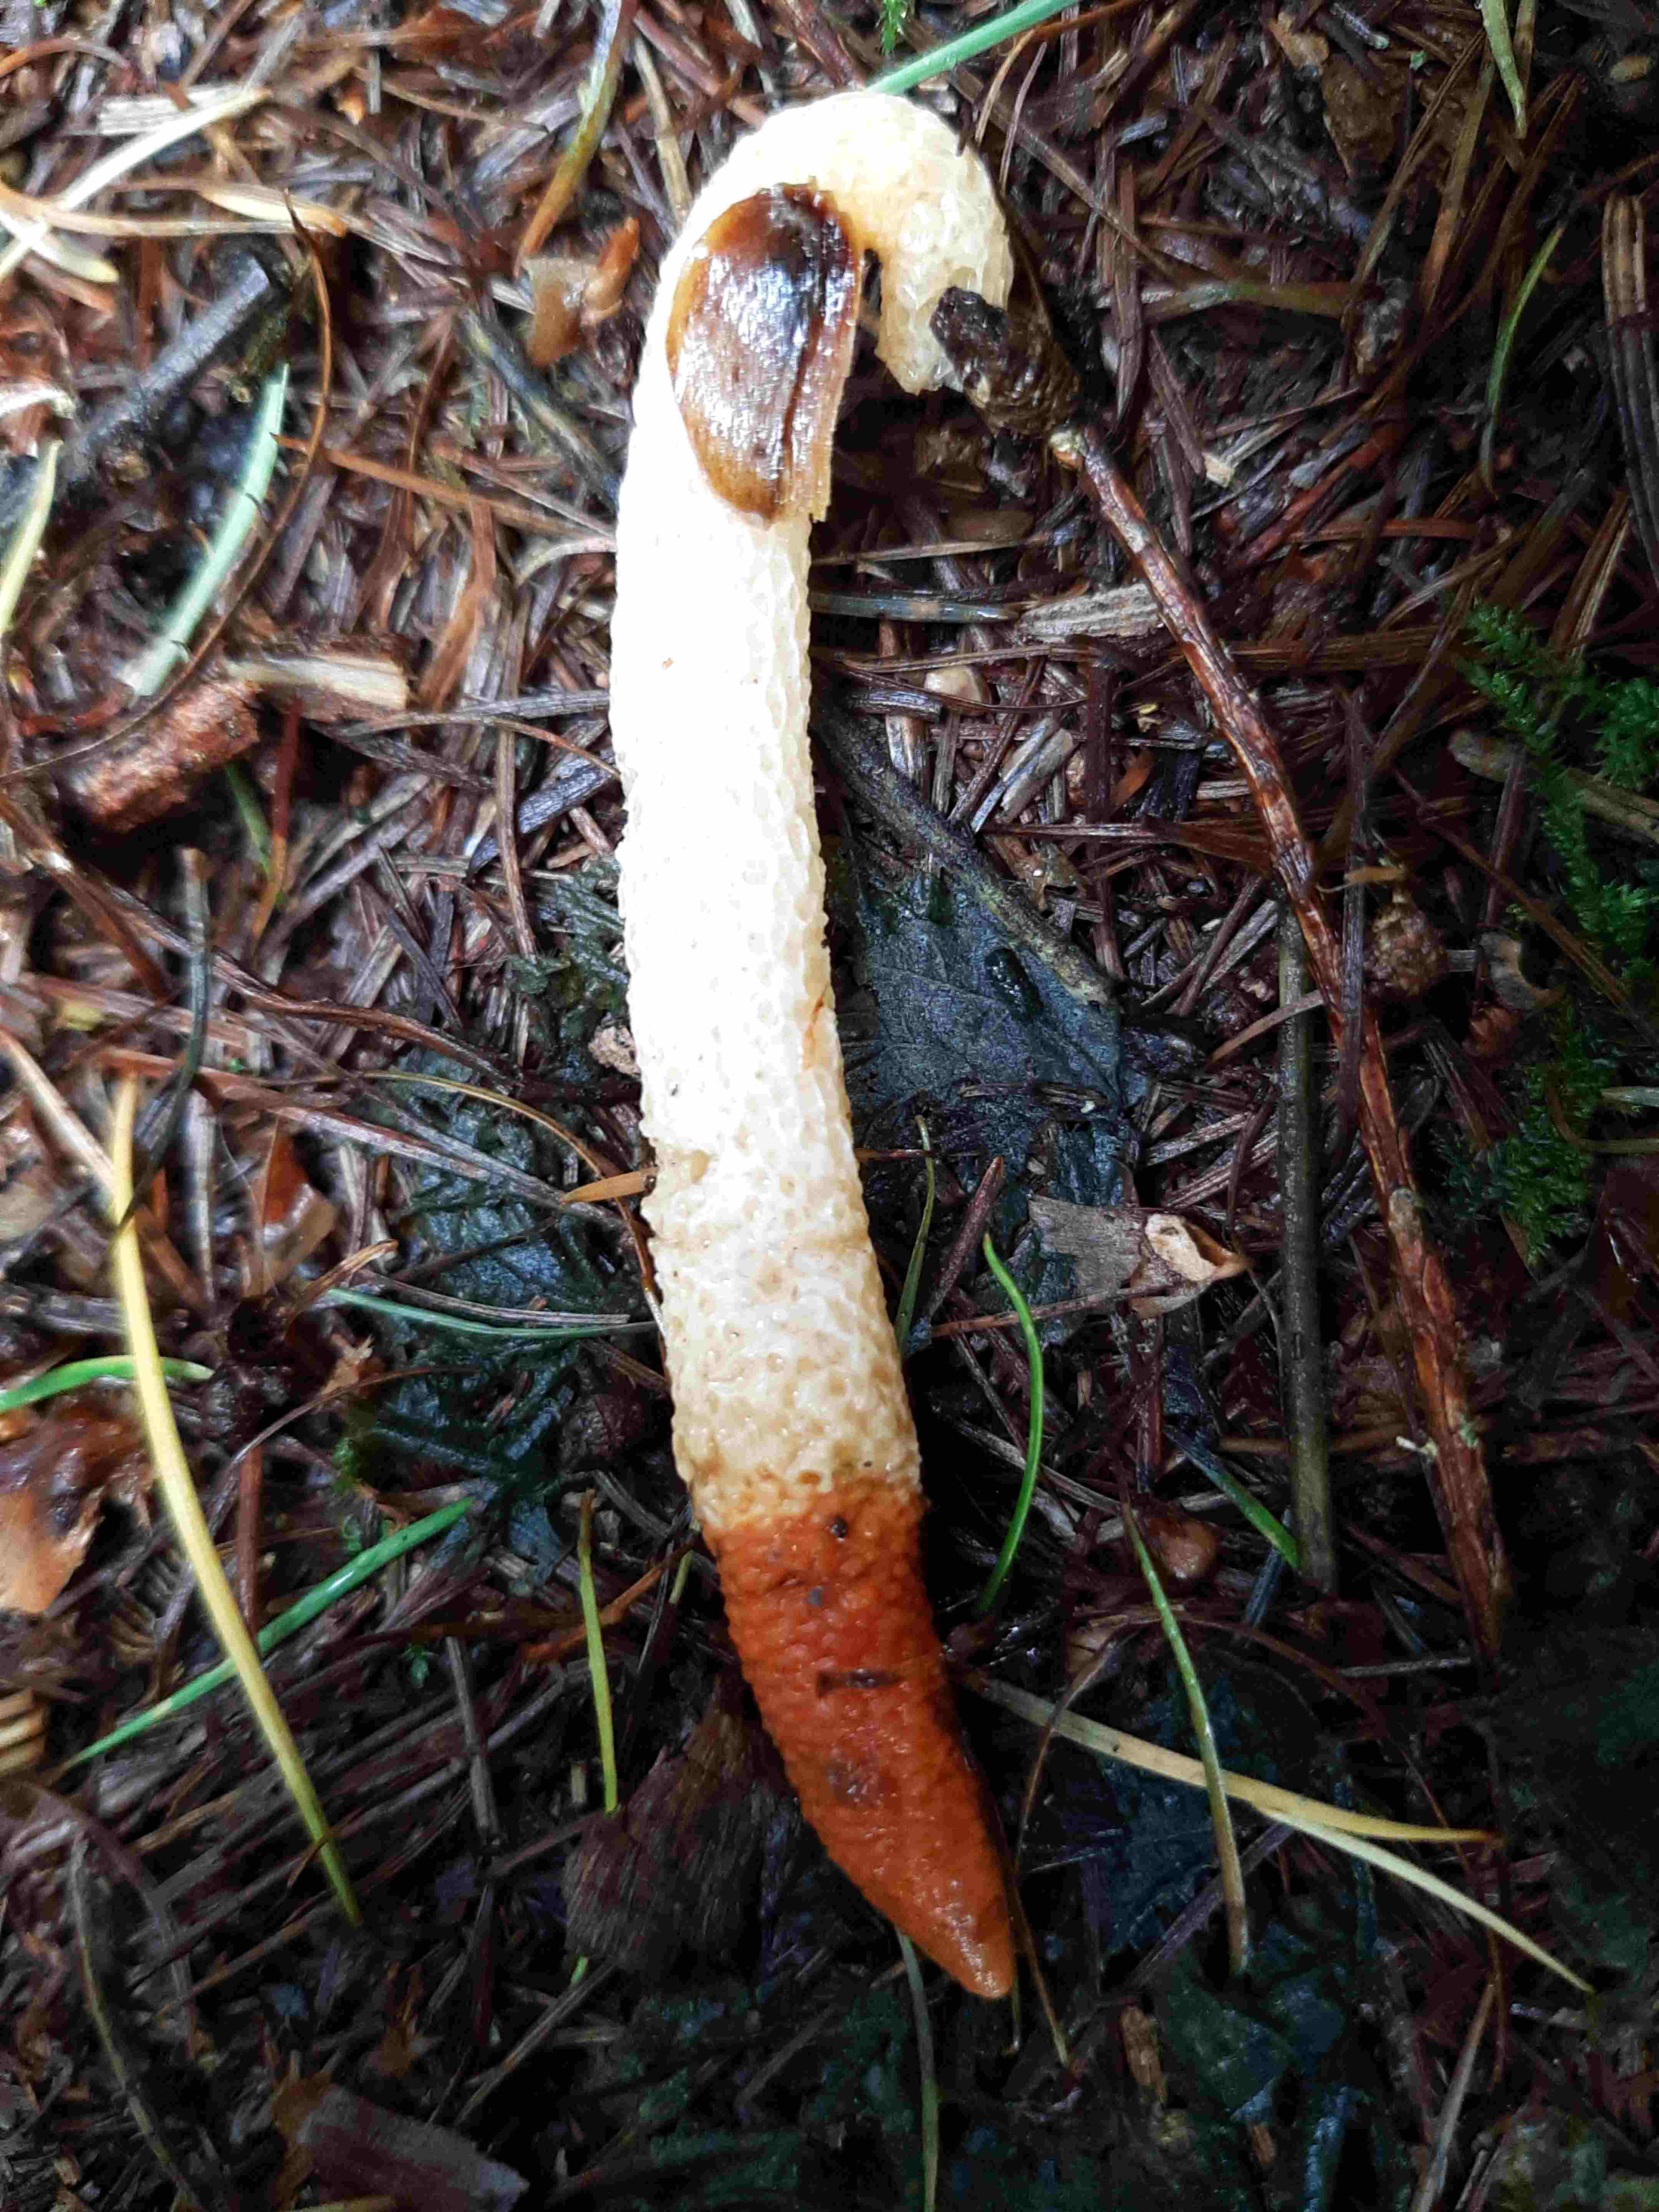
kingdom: Fungi
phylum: Basidiomycota
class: Agaricomycetes
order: Phallales
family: Phallaceae
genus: Mutinus
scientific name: Mutinus caninus
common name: hunde-stinksvamp
